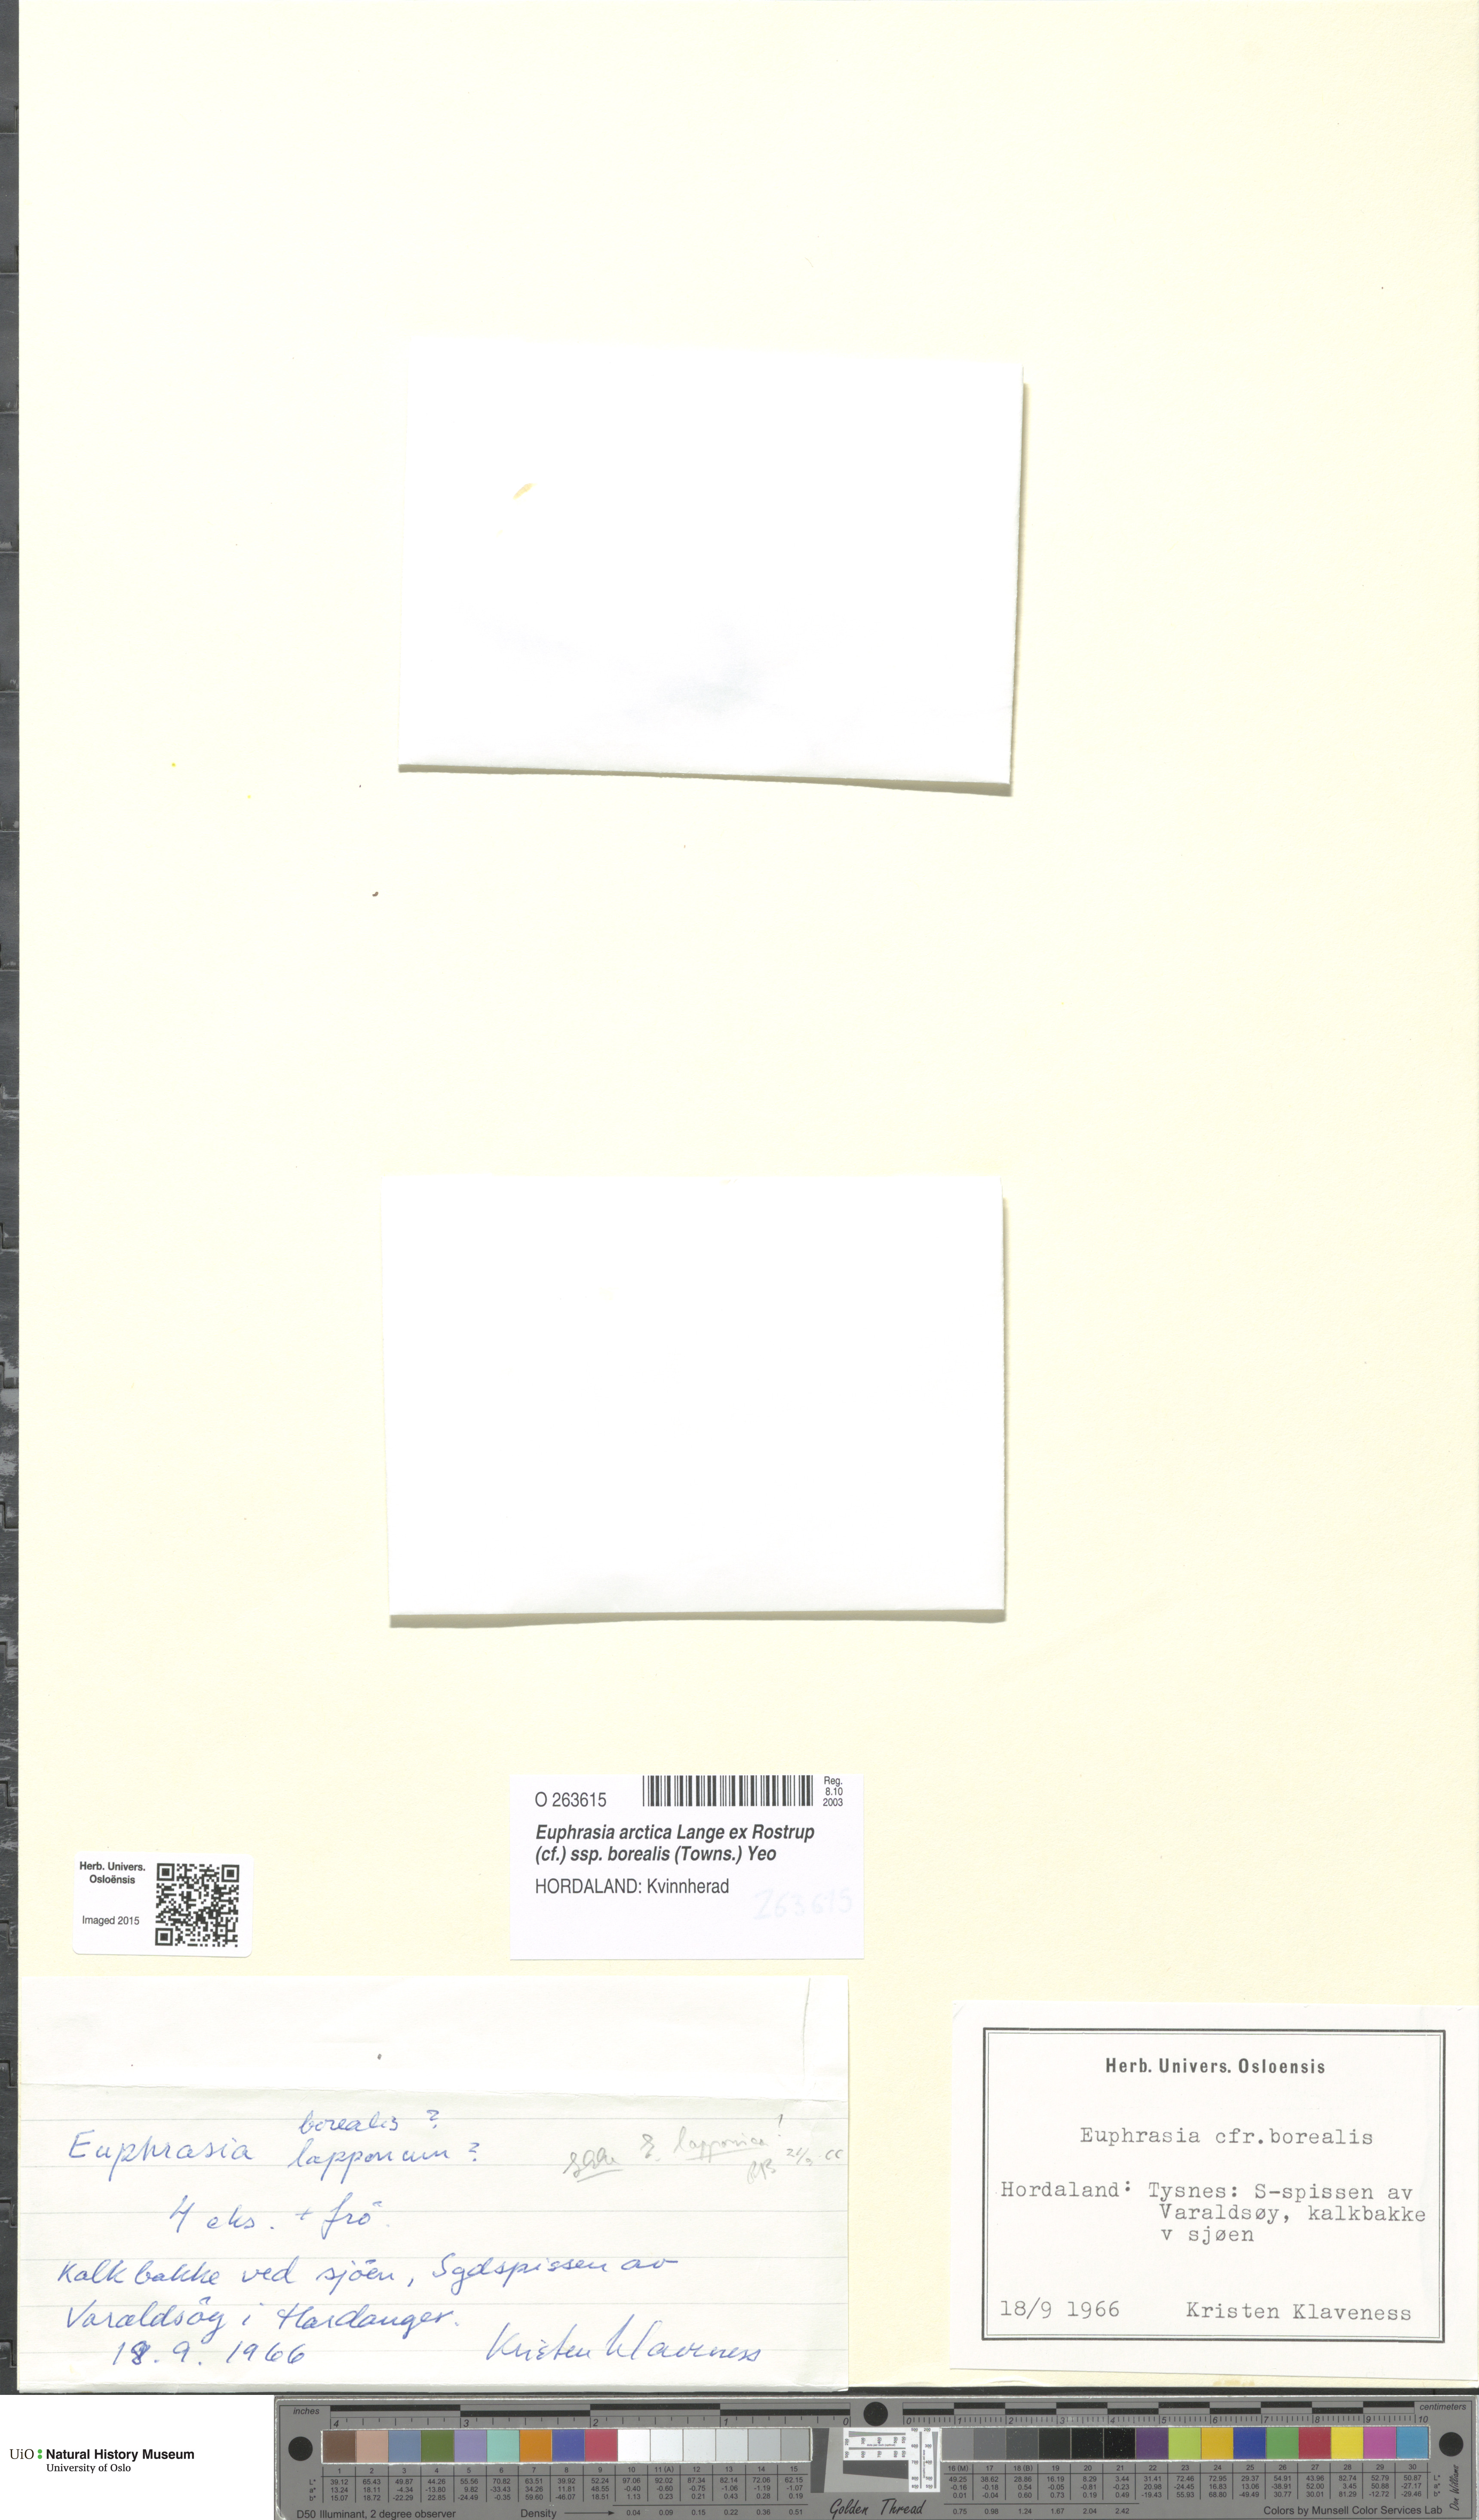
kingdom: Plantae
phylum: Tracheophyta
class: Magnoliopsida
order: Lamiales
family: Orobanchaceae
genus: Euphrasia
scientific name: Euphrasia arctica
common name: An eyebright
